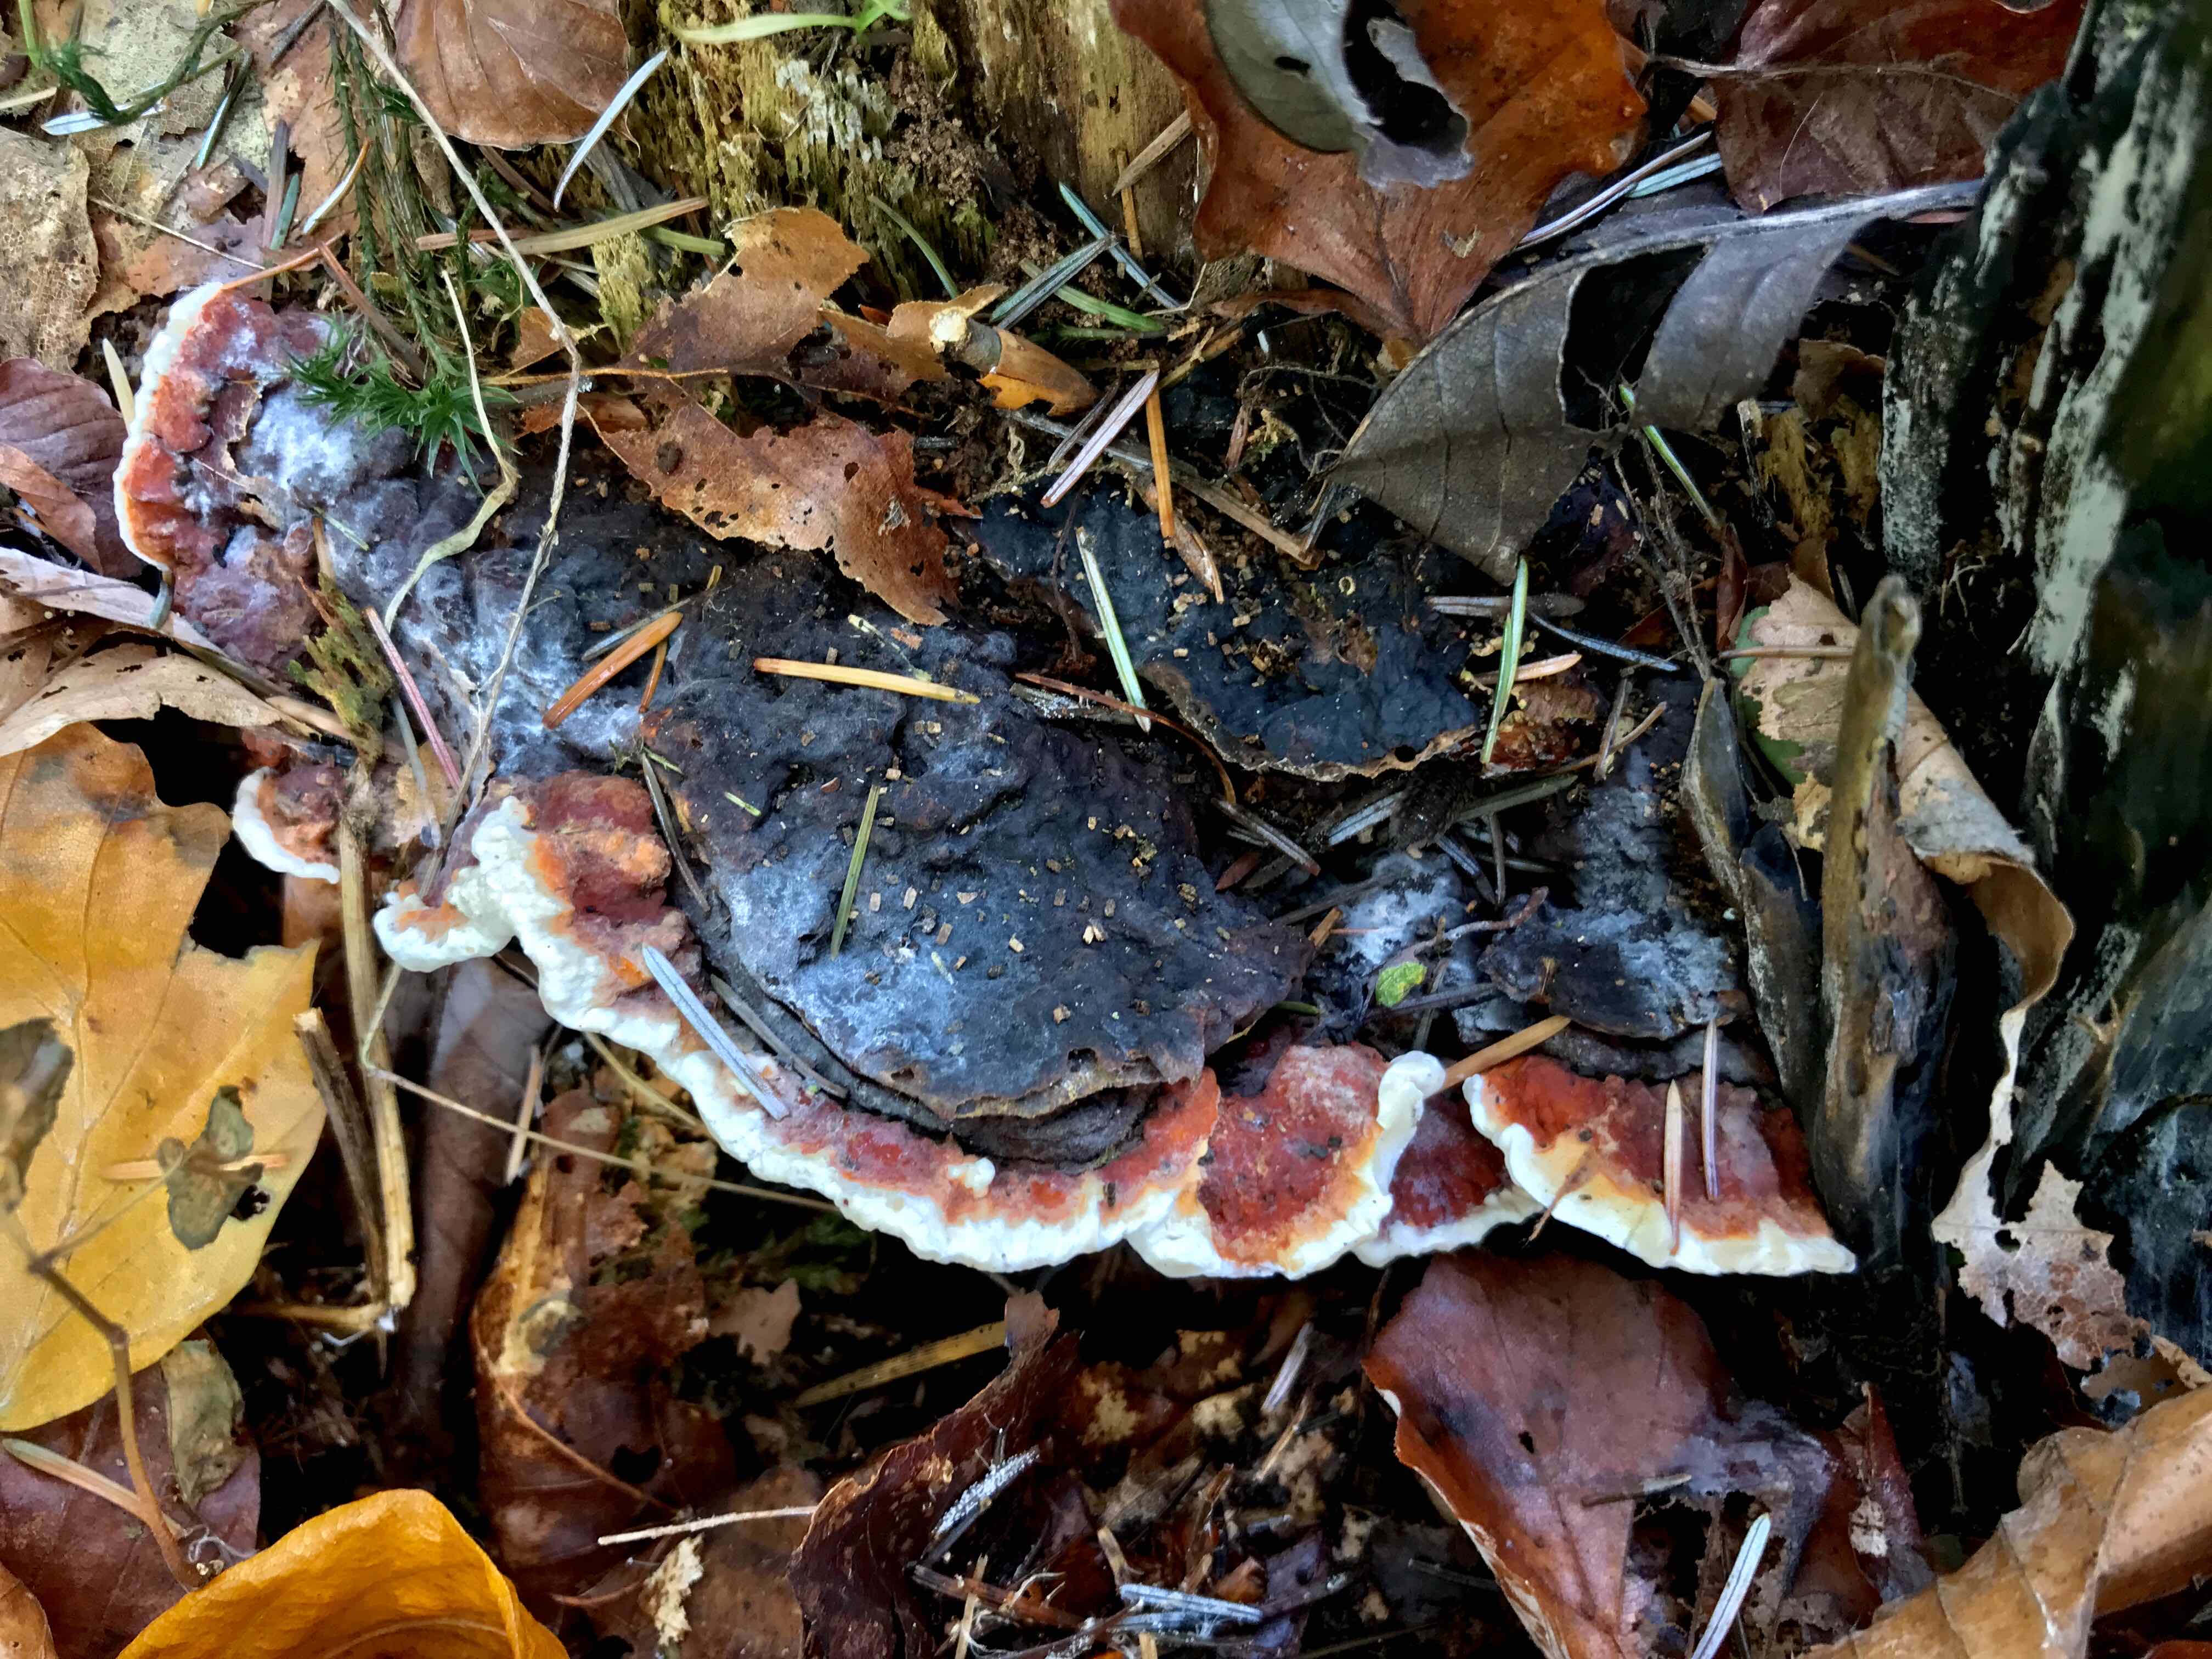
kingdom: Fungi
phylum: Basidiomycota
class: Agaricomycetes
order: Russulales
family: Bondarzewiaceae
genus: Heterobasidion
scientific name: Heterobasidion annosum
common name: almindelig rodfordærver
